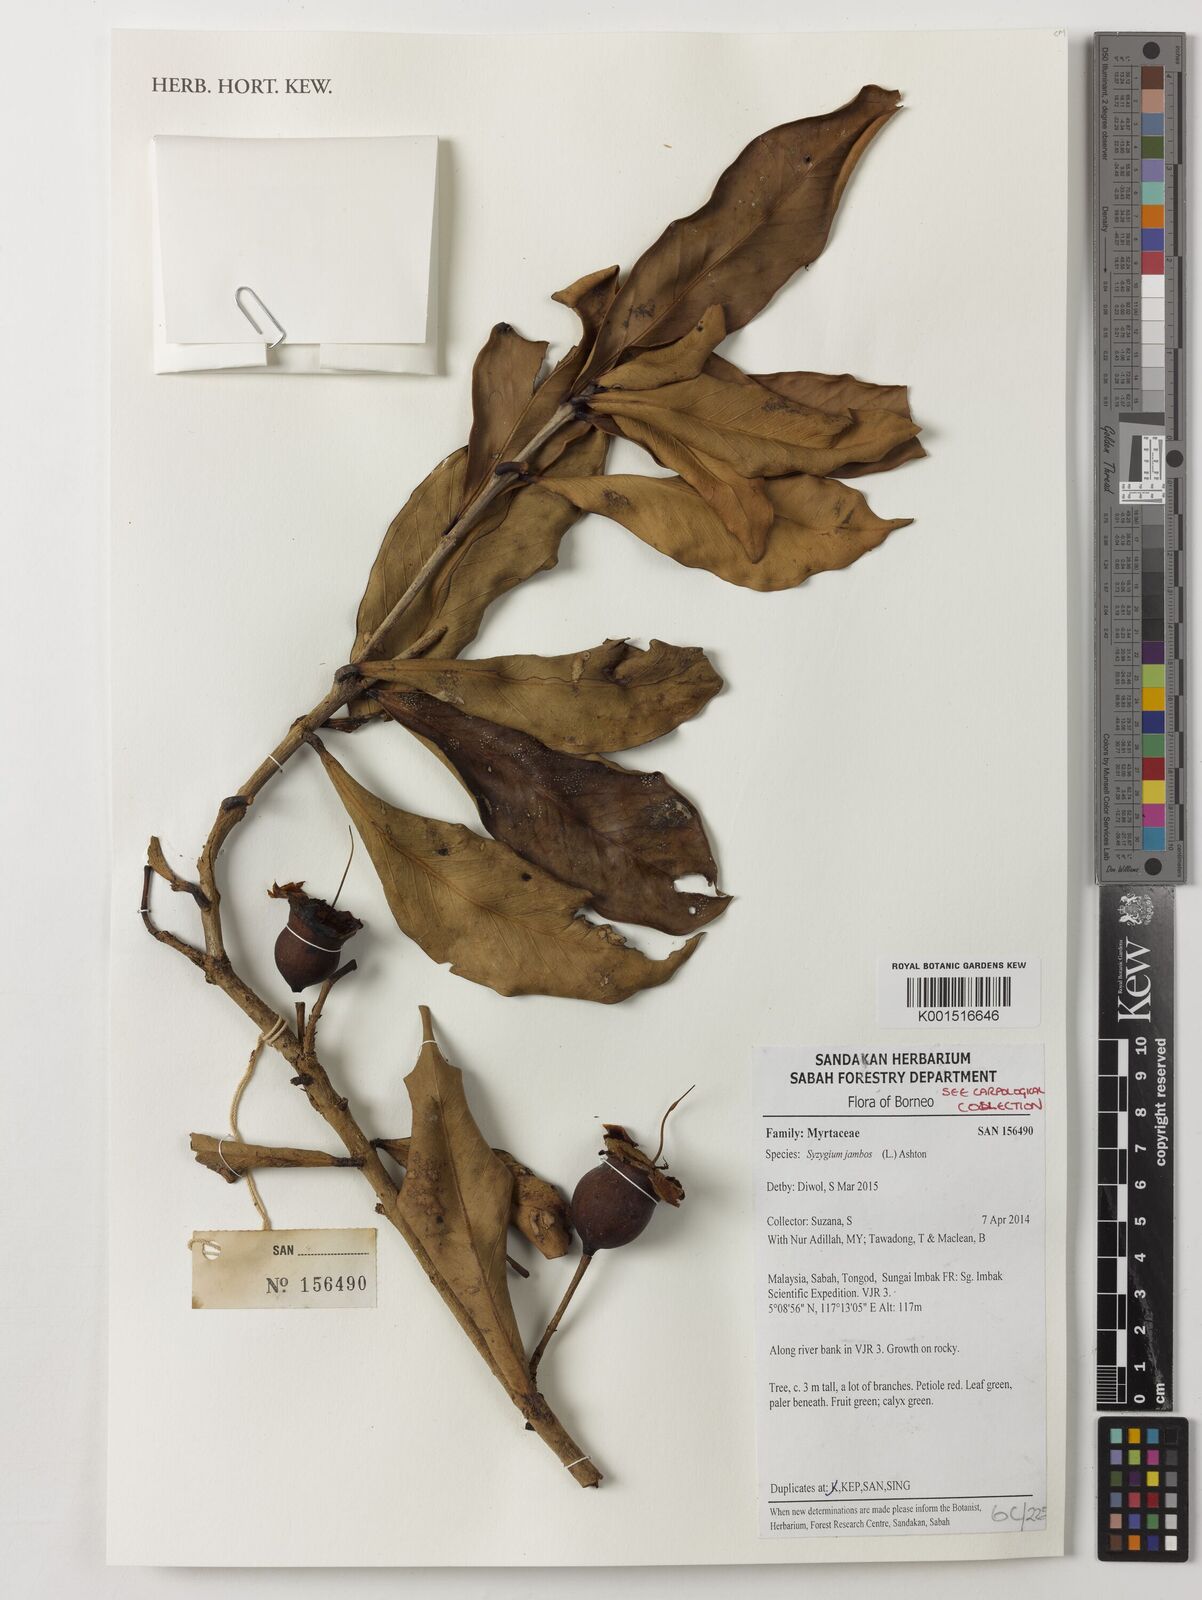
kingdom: Plantae
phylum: Tracheophyta
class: Magnoliopsida
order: Myrtales
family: Myrtaceae
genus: Syzygium
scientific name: Syzygium jambos
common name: Malabar plum
